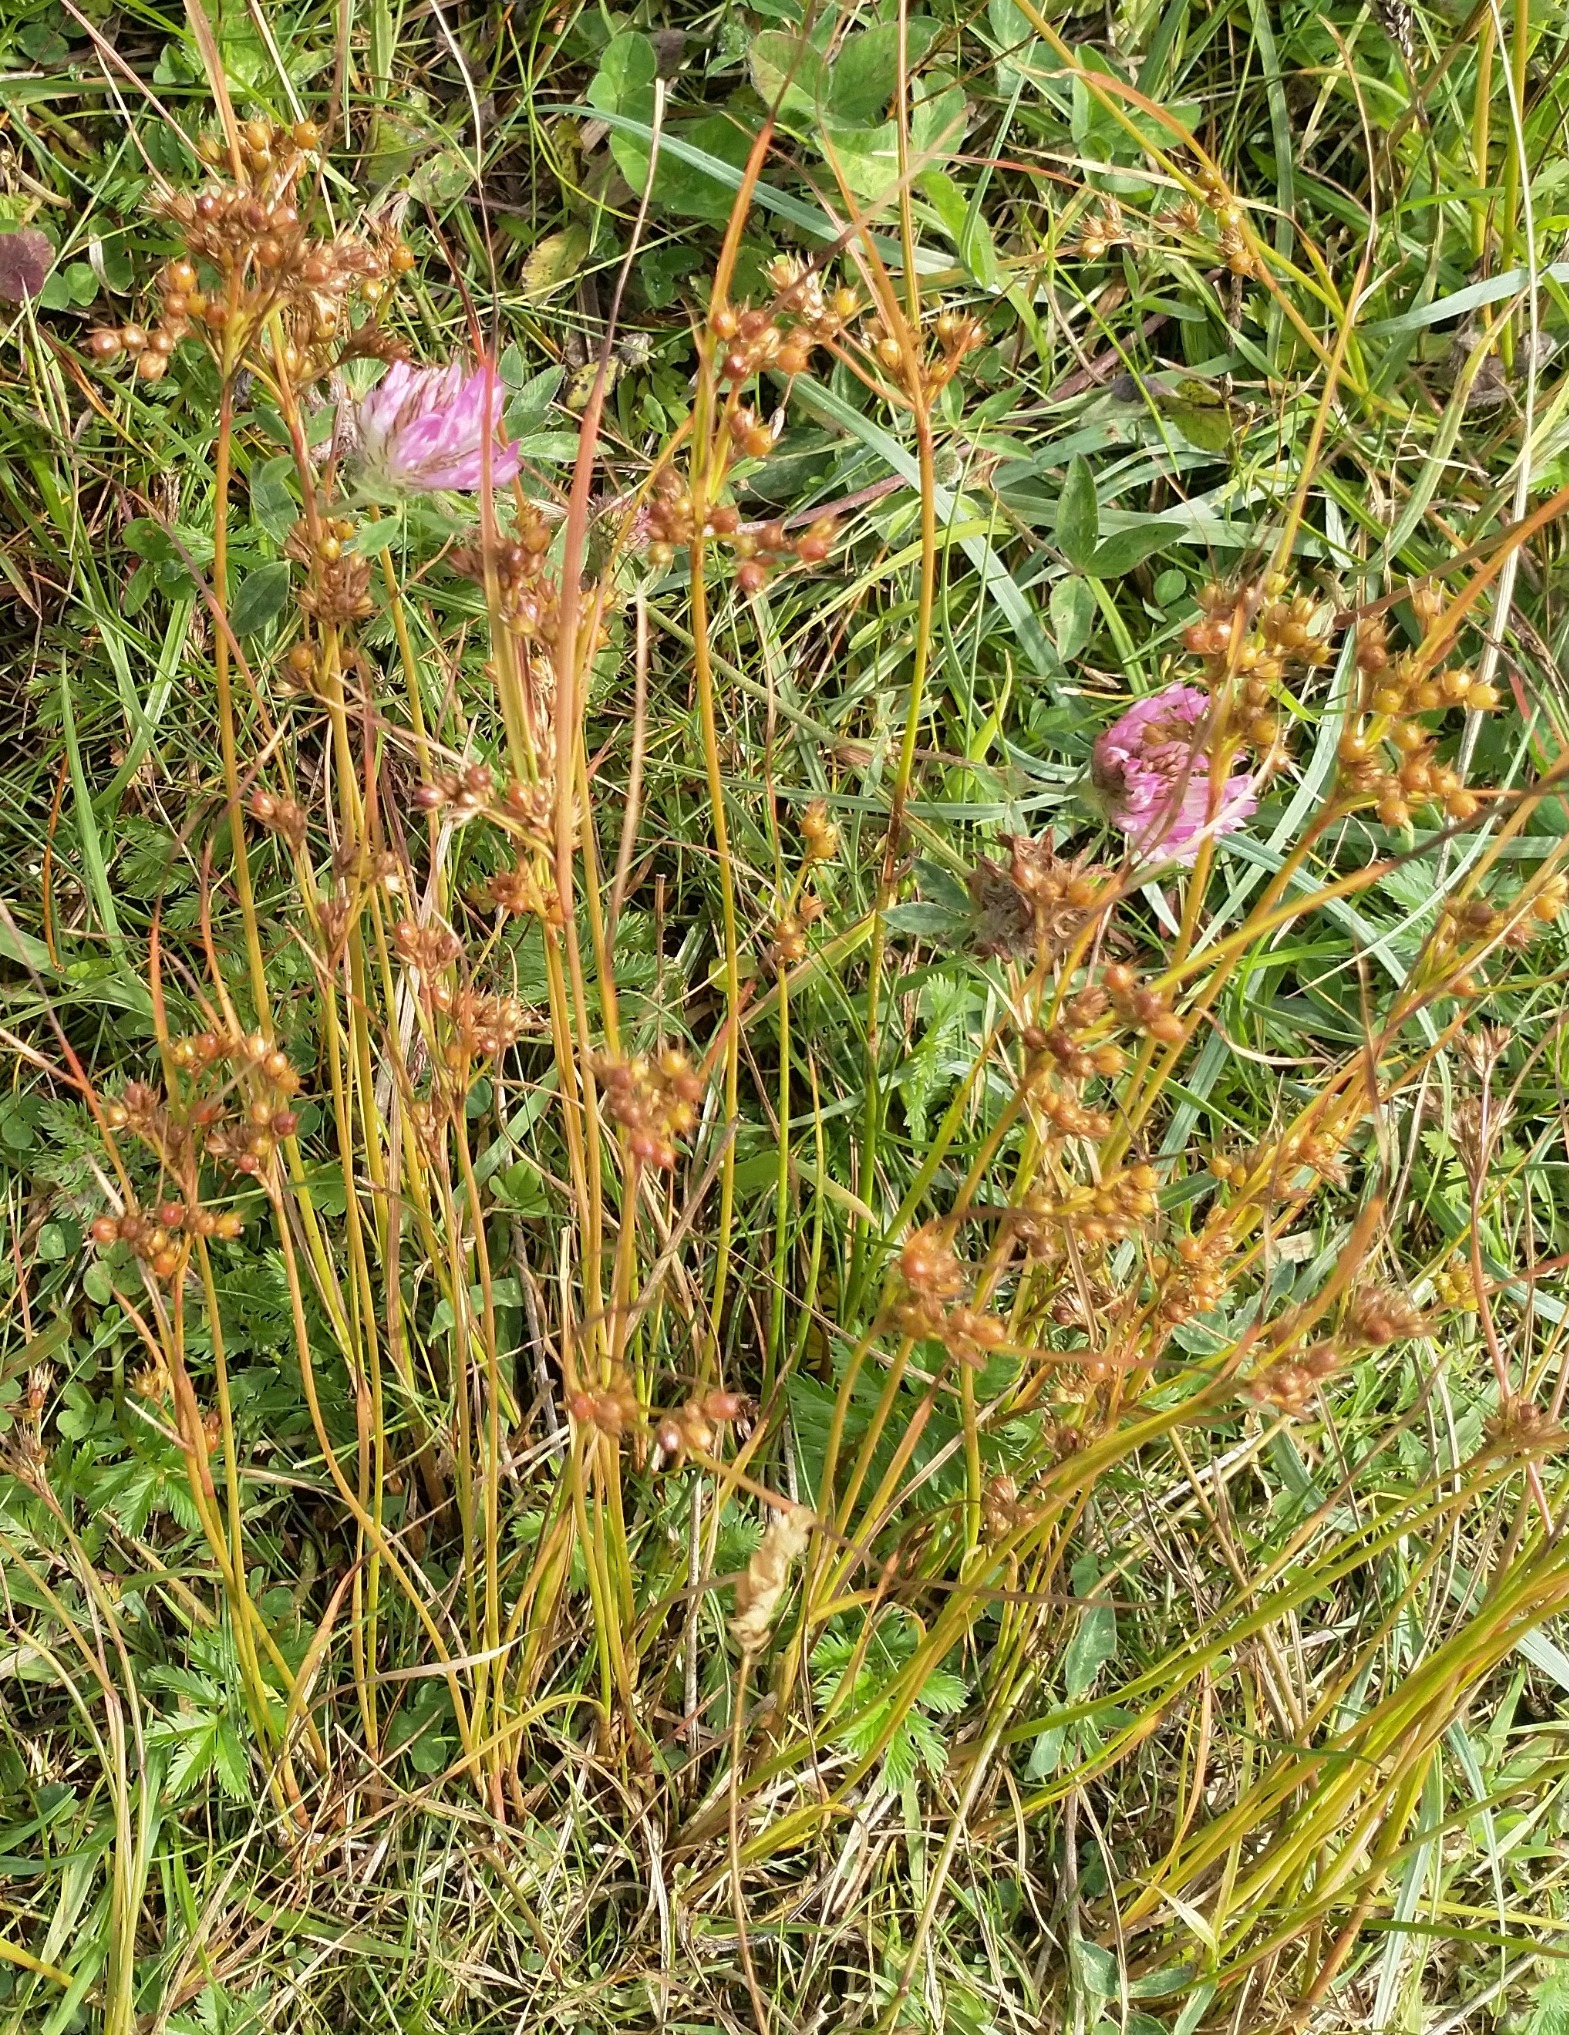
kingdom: Plantae
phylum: Tracheophyta
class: Liliopsida
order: Poales
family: Juncaceae
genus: Juncus
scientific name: Juncus tenuis
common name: Tue-siv
